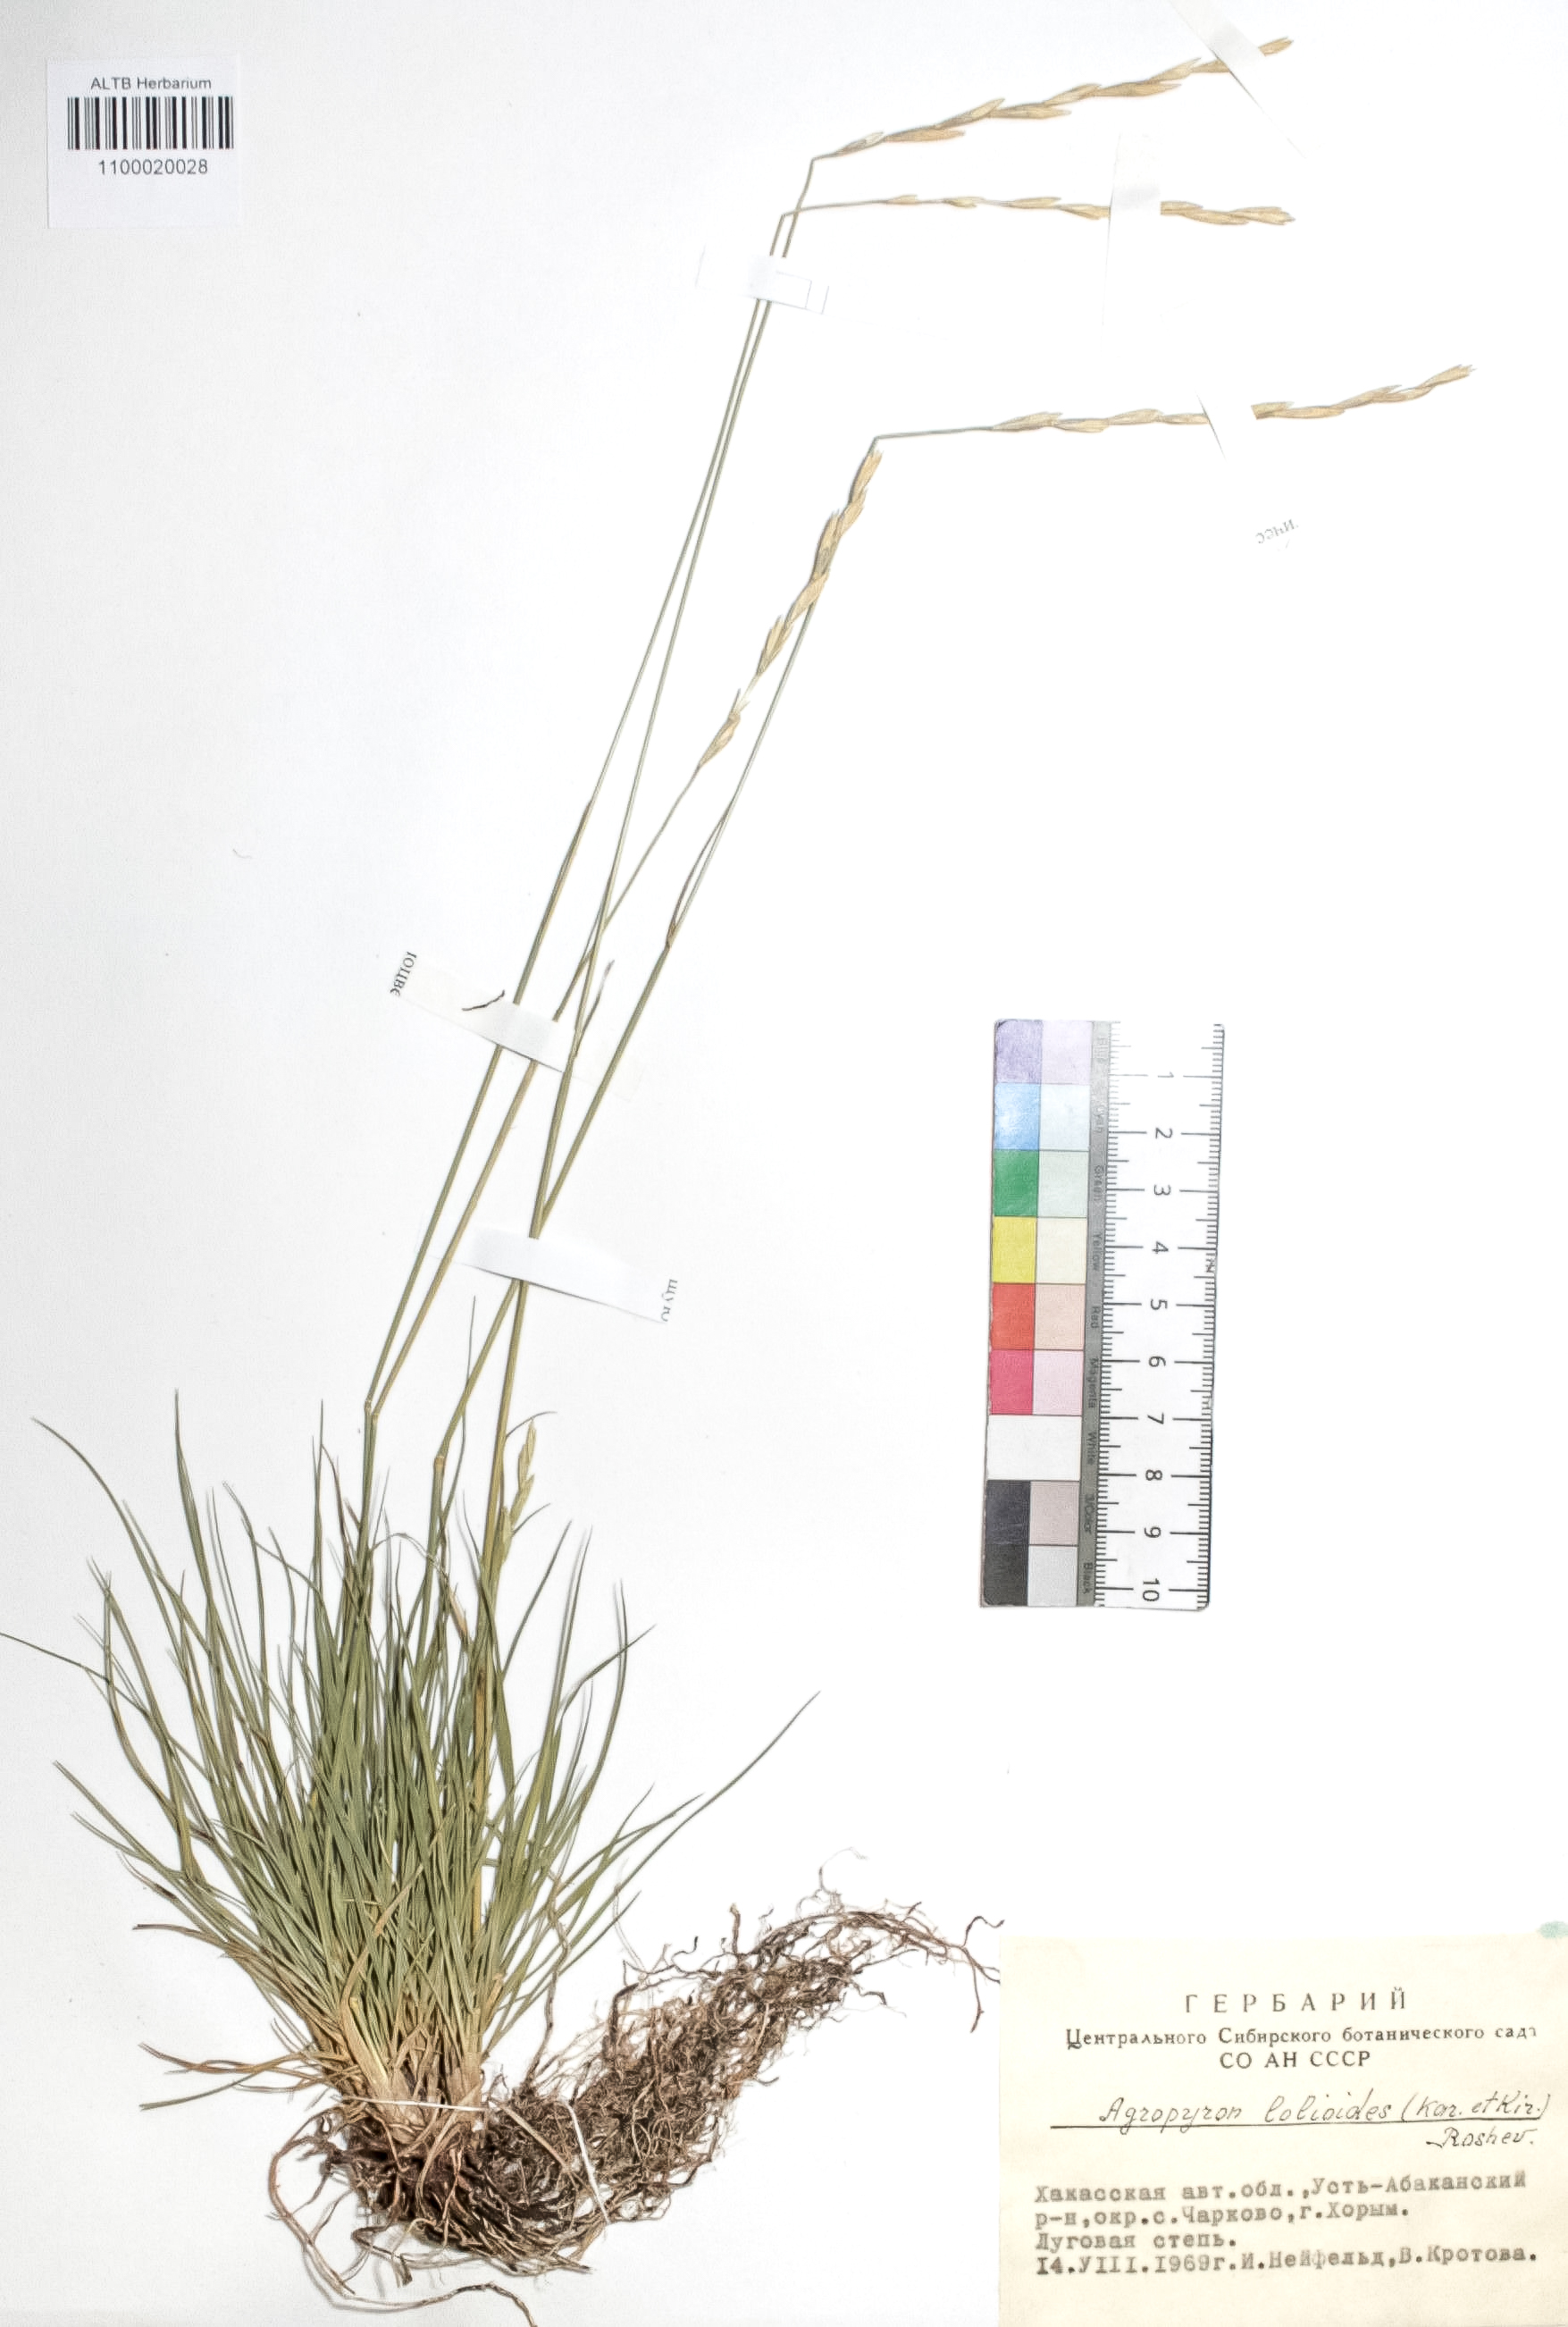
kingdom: Plantae
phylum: Tracheophyta
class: Liliopsida
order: Poales
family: Poaceae
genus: Agropyron
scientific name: Agropyron lolioides
